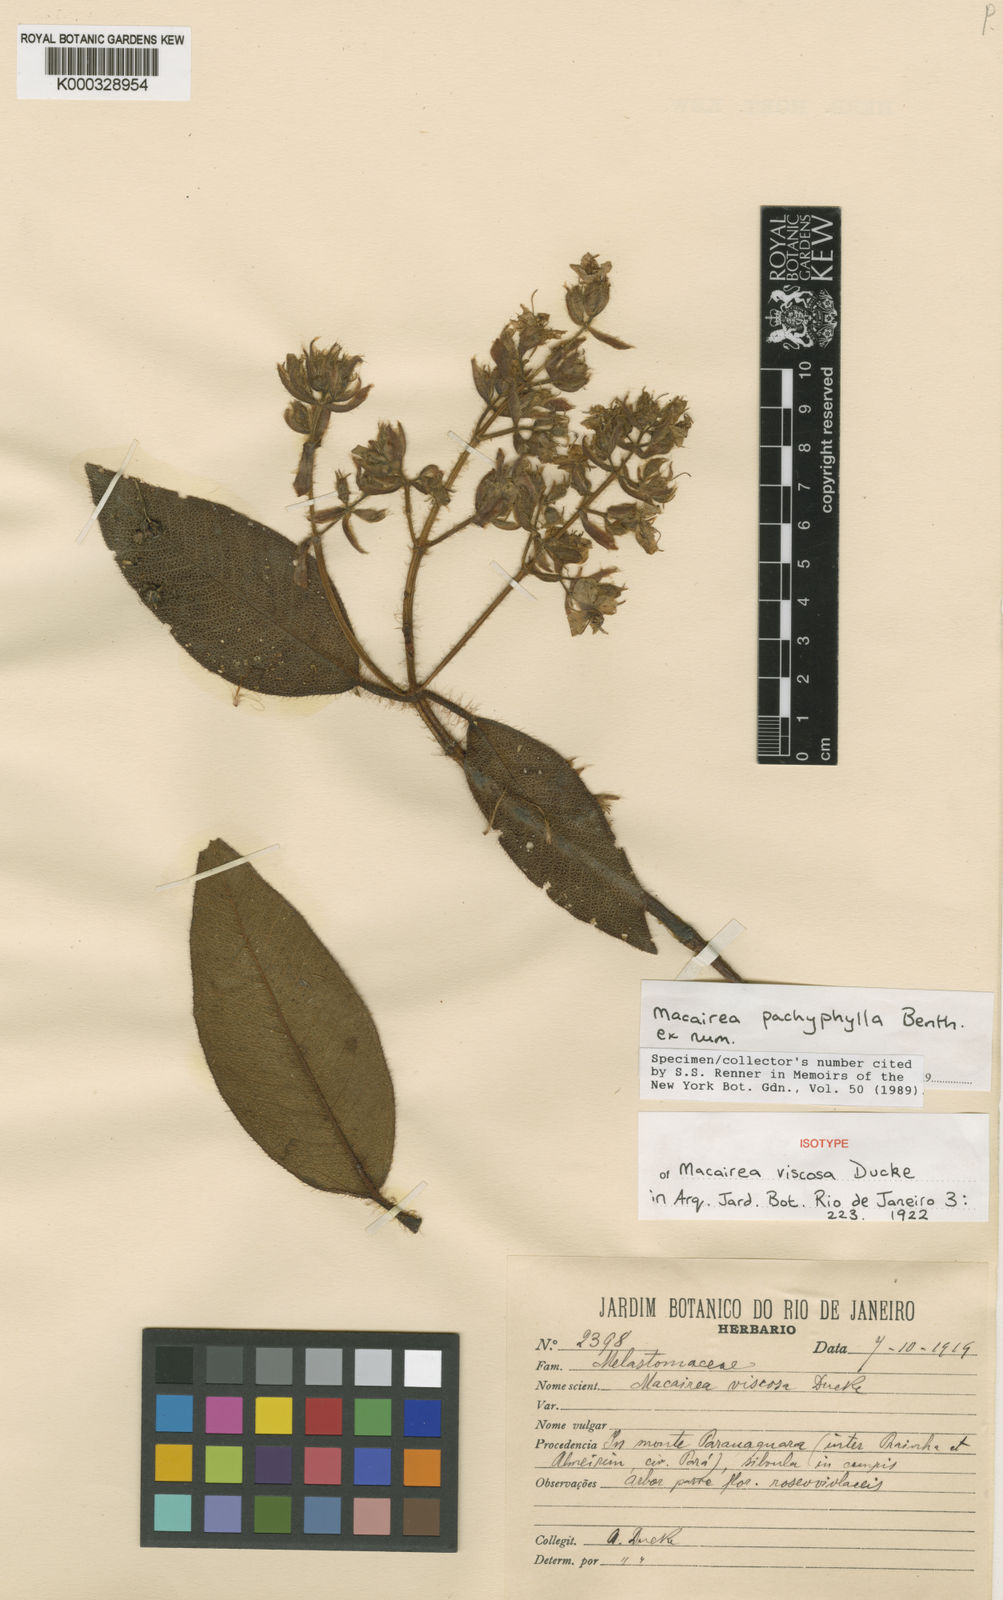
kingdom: Plantae
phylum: Tracheophyta
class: Magnoliopsida
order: Myrtales
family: Melastomataceae
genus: Macairea
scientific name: Macairea pachyphylla
